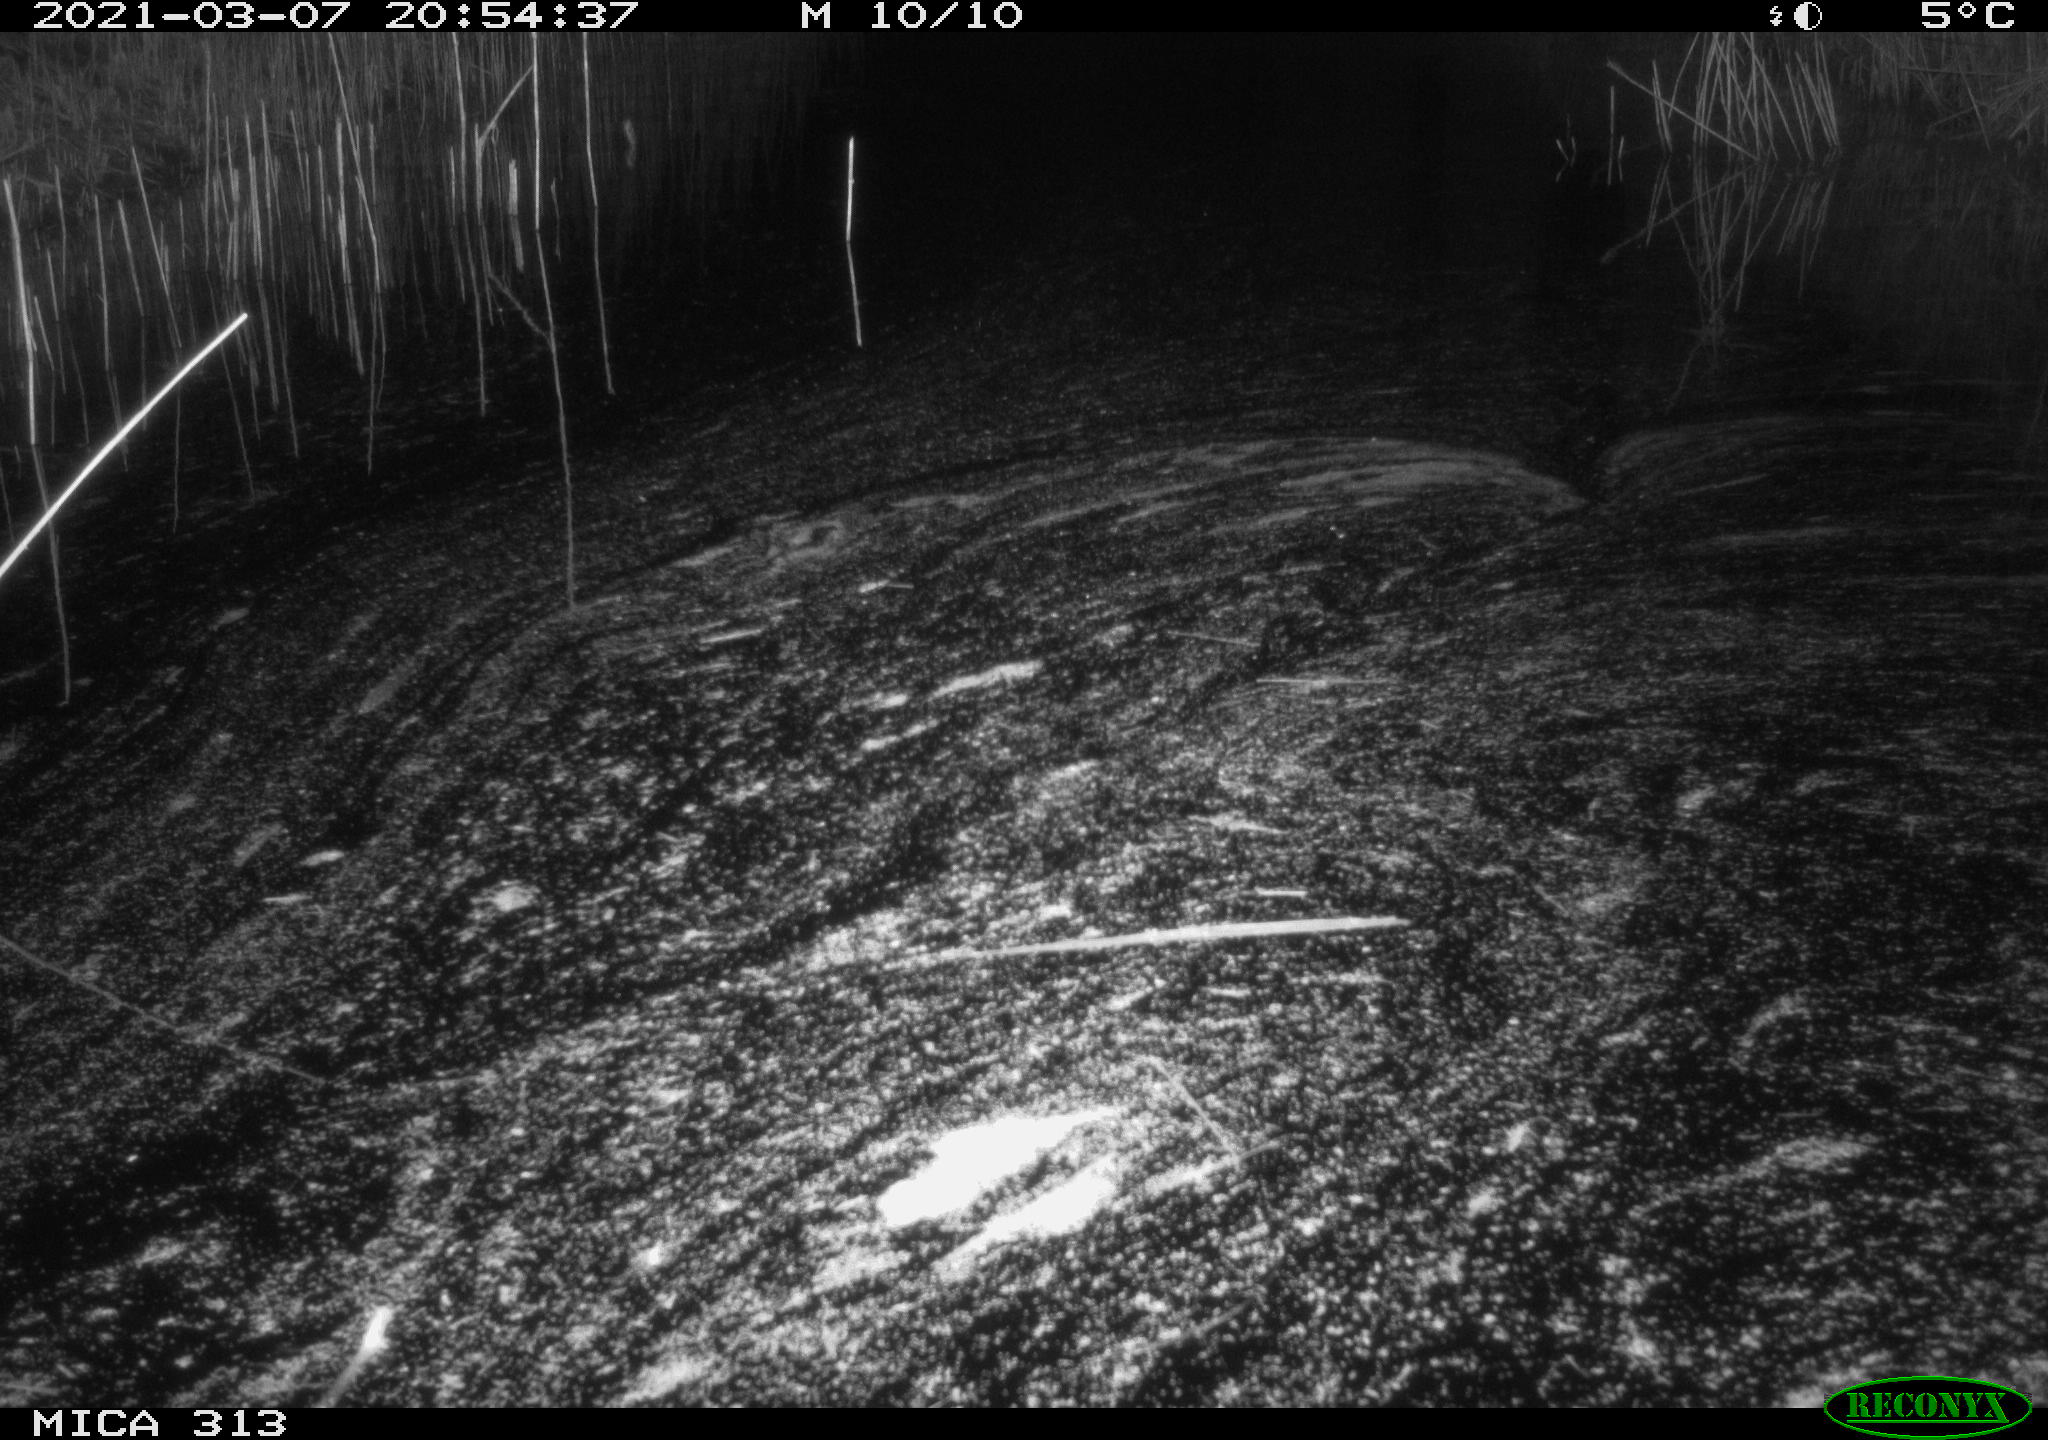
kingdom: Animalia
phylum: Chordata
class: Aves
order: Gruiformes
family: Rallidae
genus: Gallinula
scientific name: Gallinula chloropus
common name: Common moorhen
